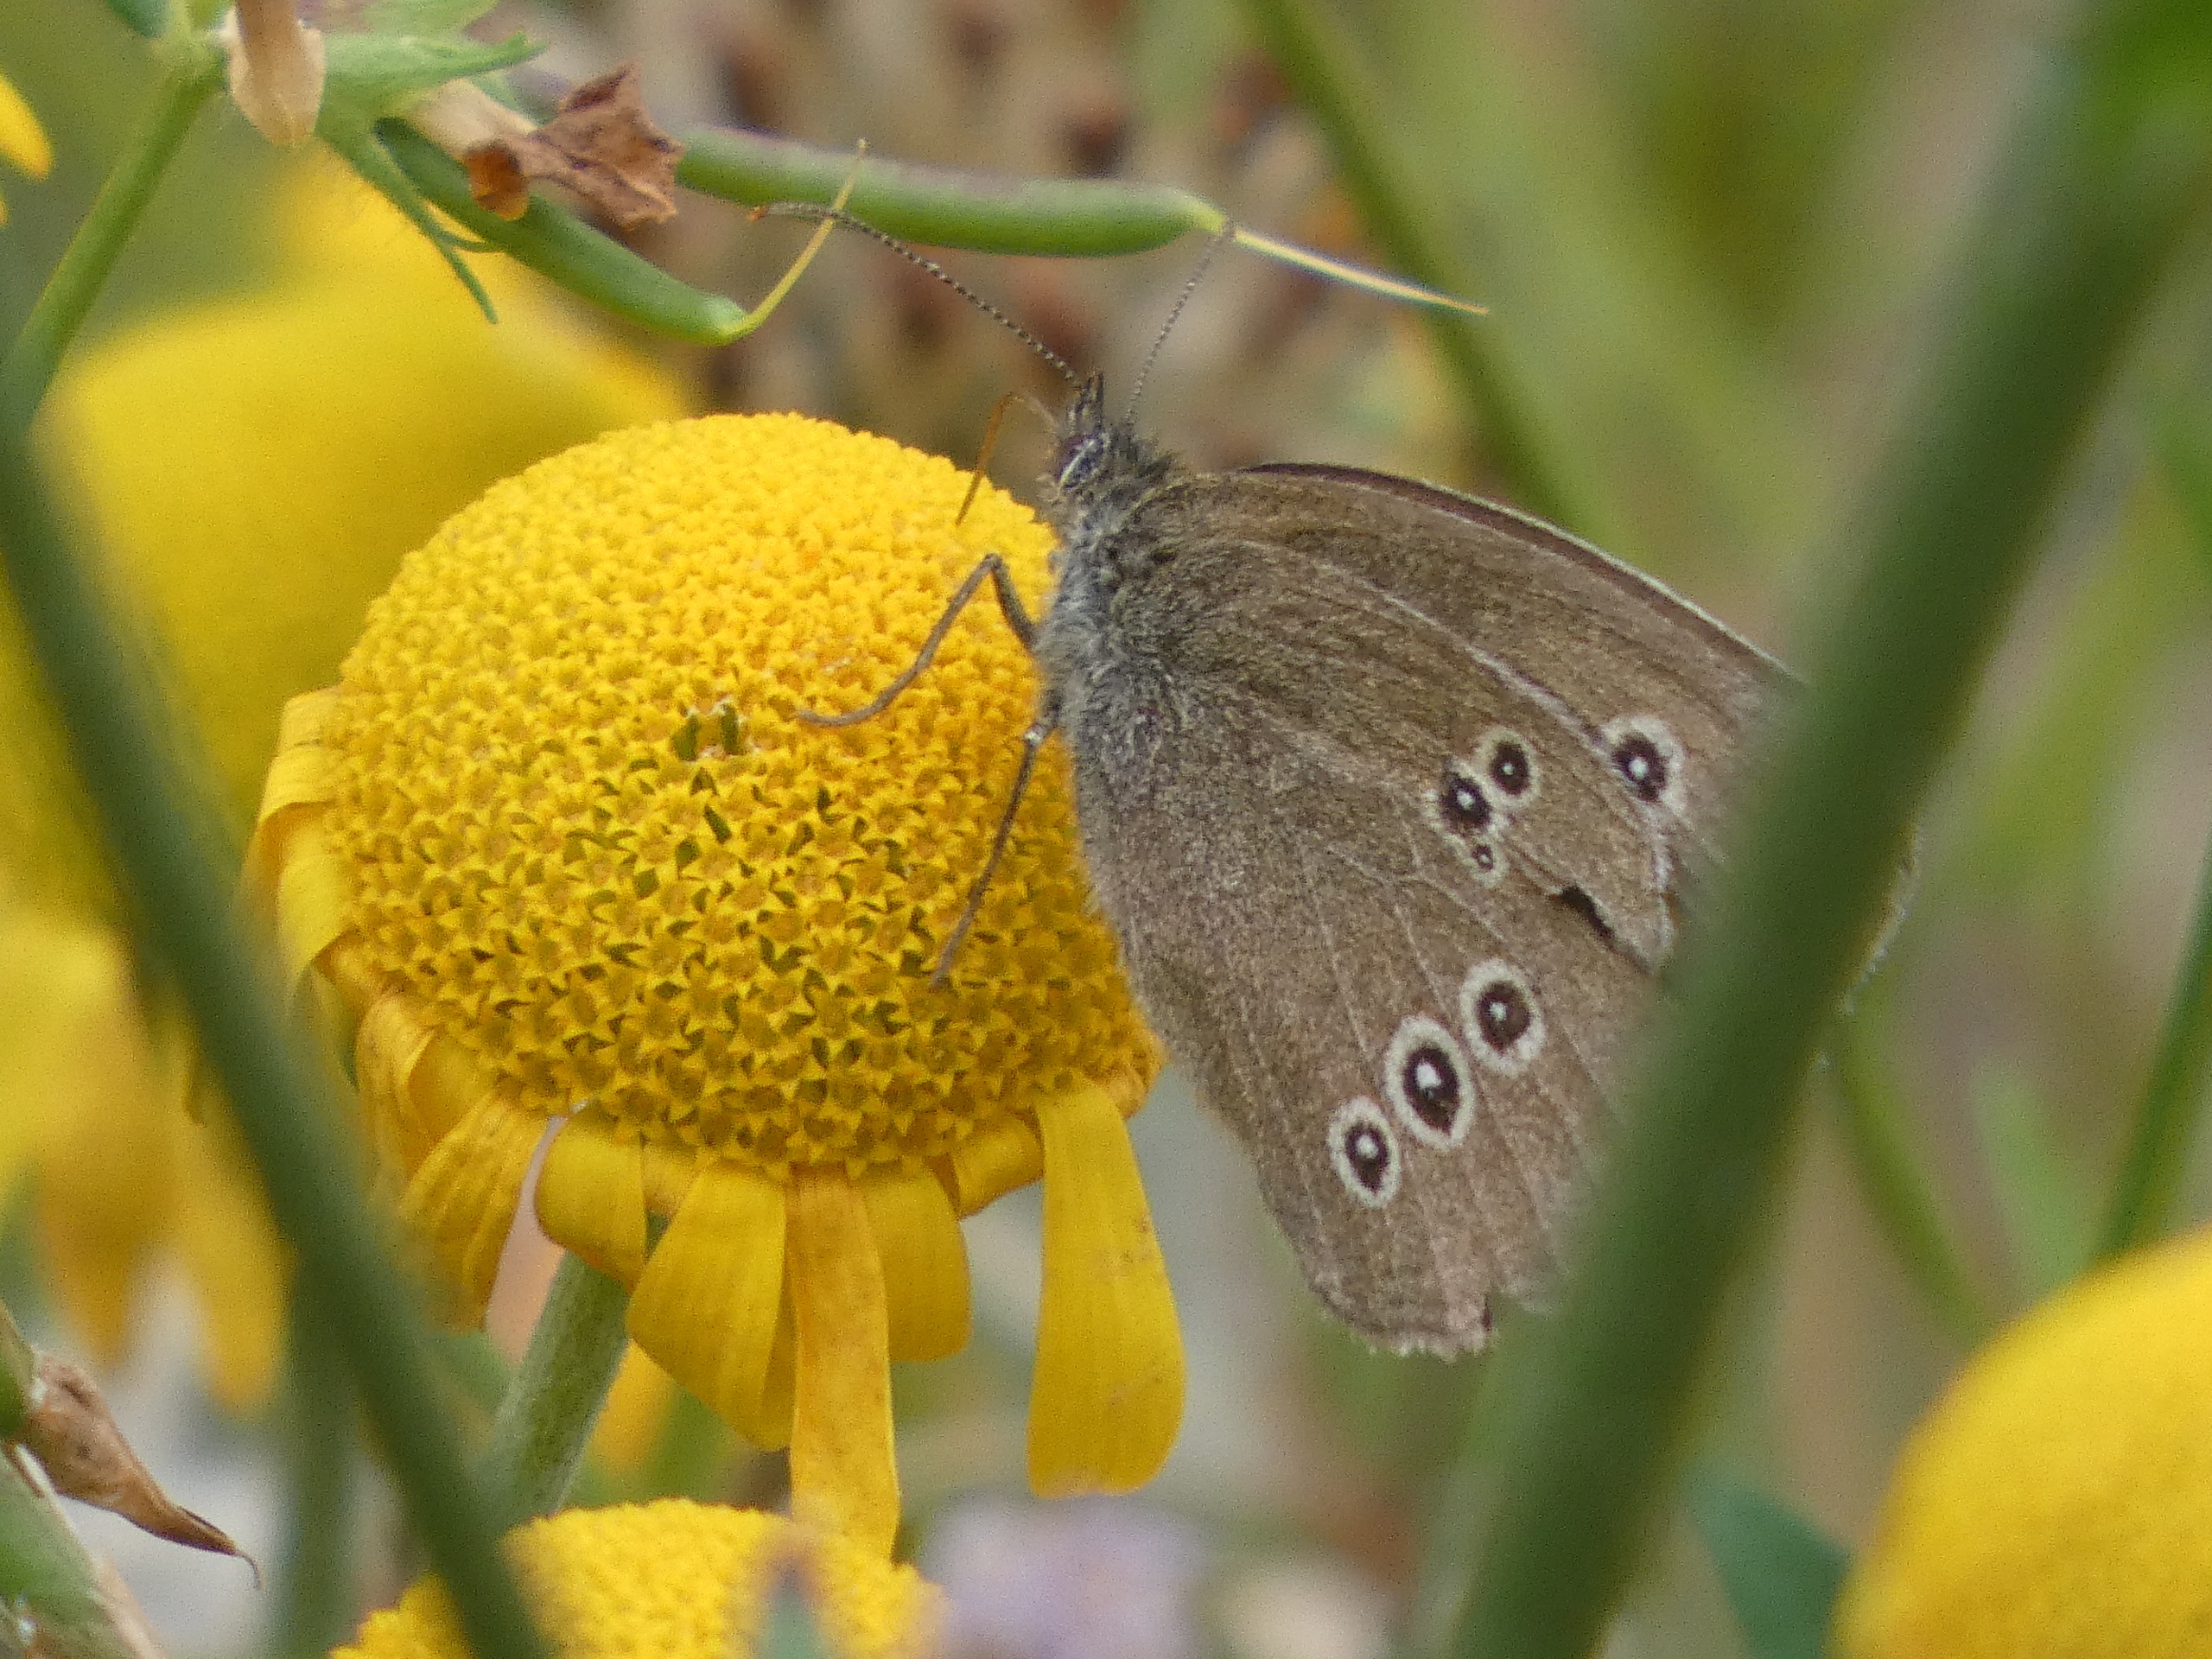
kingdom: Animalia
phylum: Arthropoda
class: Insecta
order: Lepidoptera
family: Nymphalidae
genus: Aphantopus
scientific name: Aphantopus hyperantus
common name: Engrandøje
